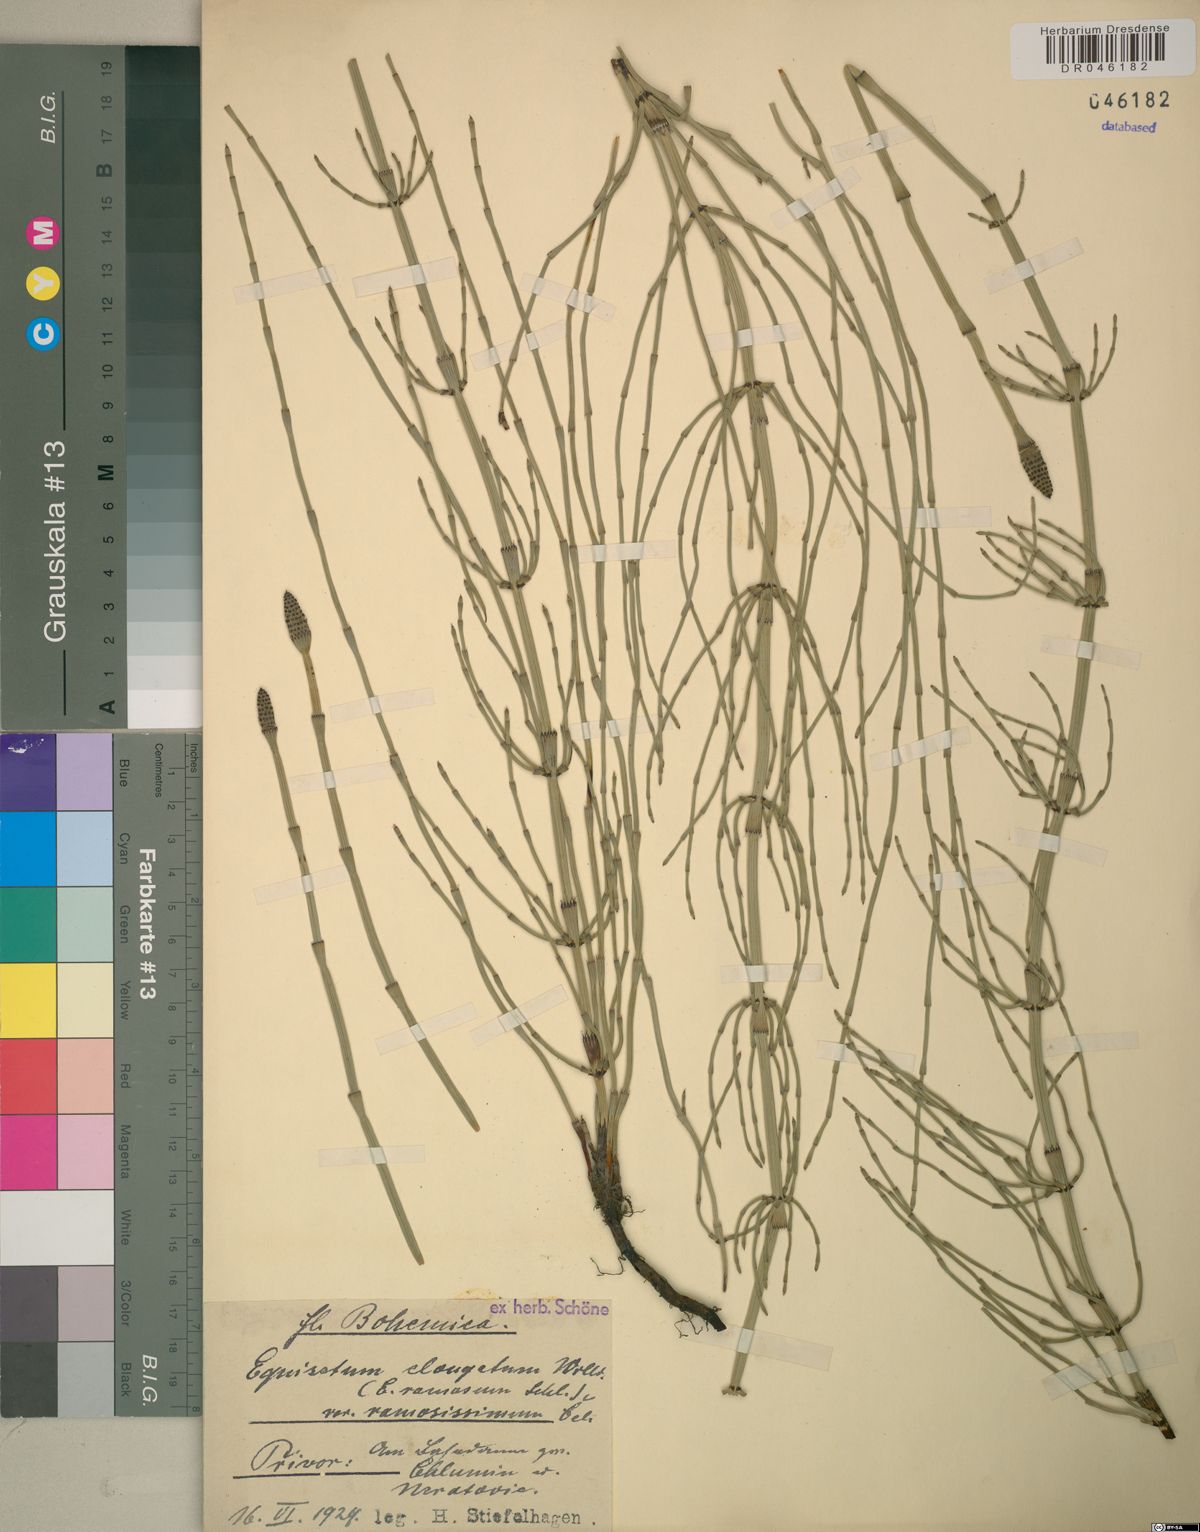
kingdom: Plantae
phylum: Tracheophyta
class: Polypodiopsida
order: Equisetales
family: Equisetaceae
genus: Equisetum
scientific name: Equisetum ramosissimum
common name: Branched horsetail
